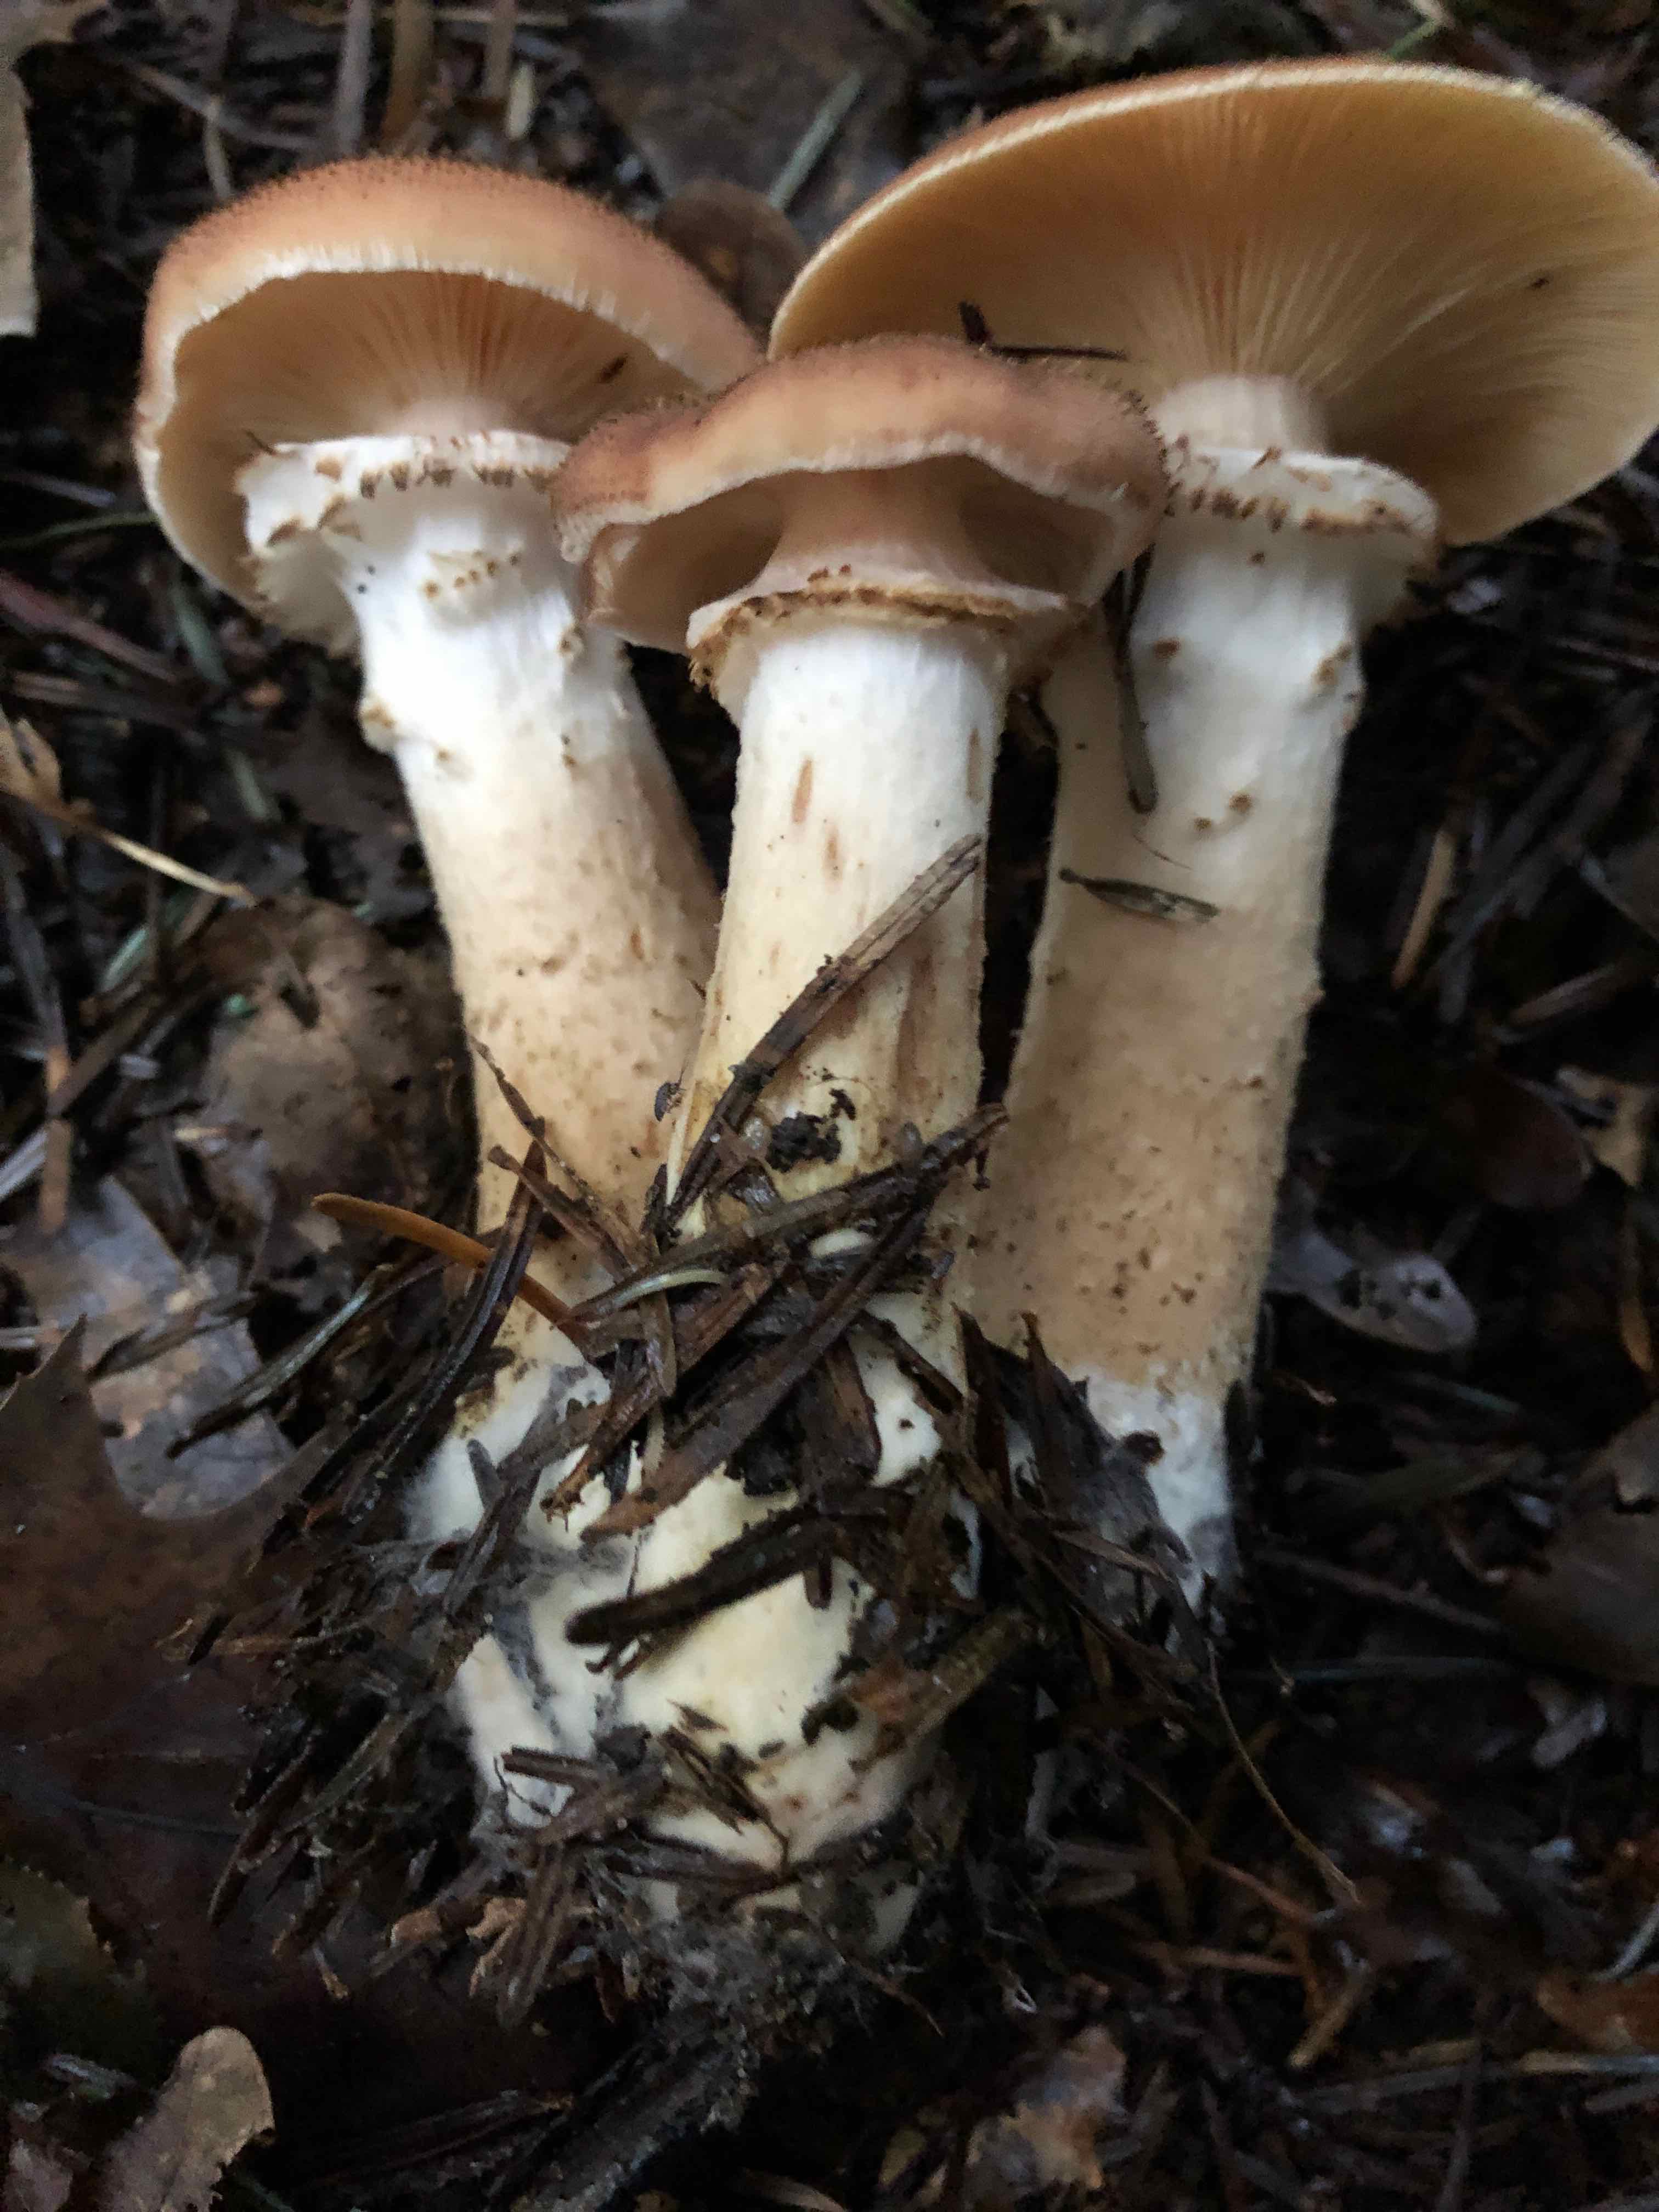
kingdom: Fungi
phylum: Basidiomycota
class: Agaricomycetes
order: Agaricales
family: Physalacriaceae
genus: Armillaria
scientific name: Armillaria ostoyae
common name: mørk honningsvamp
